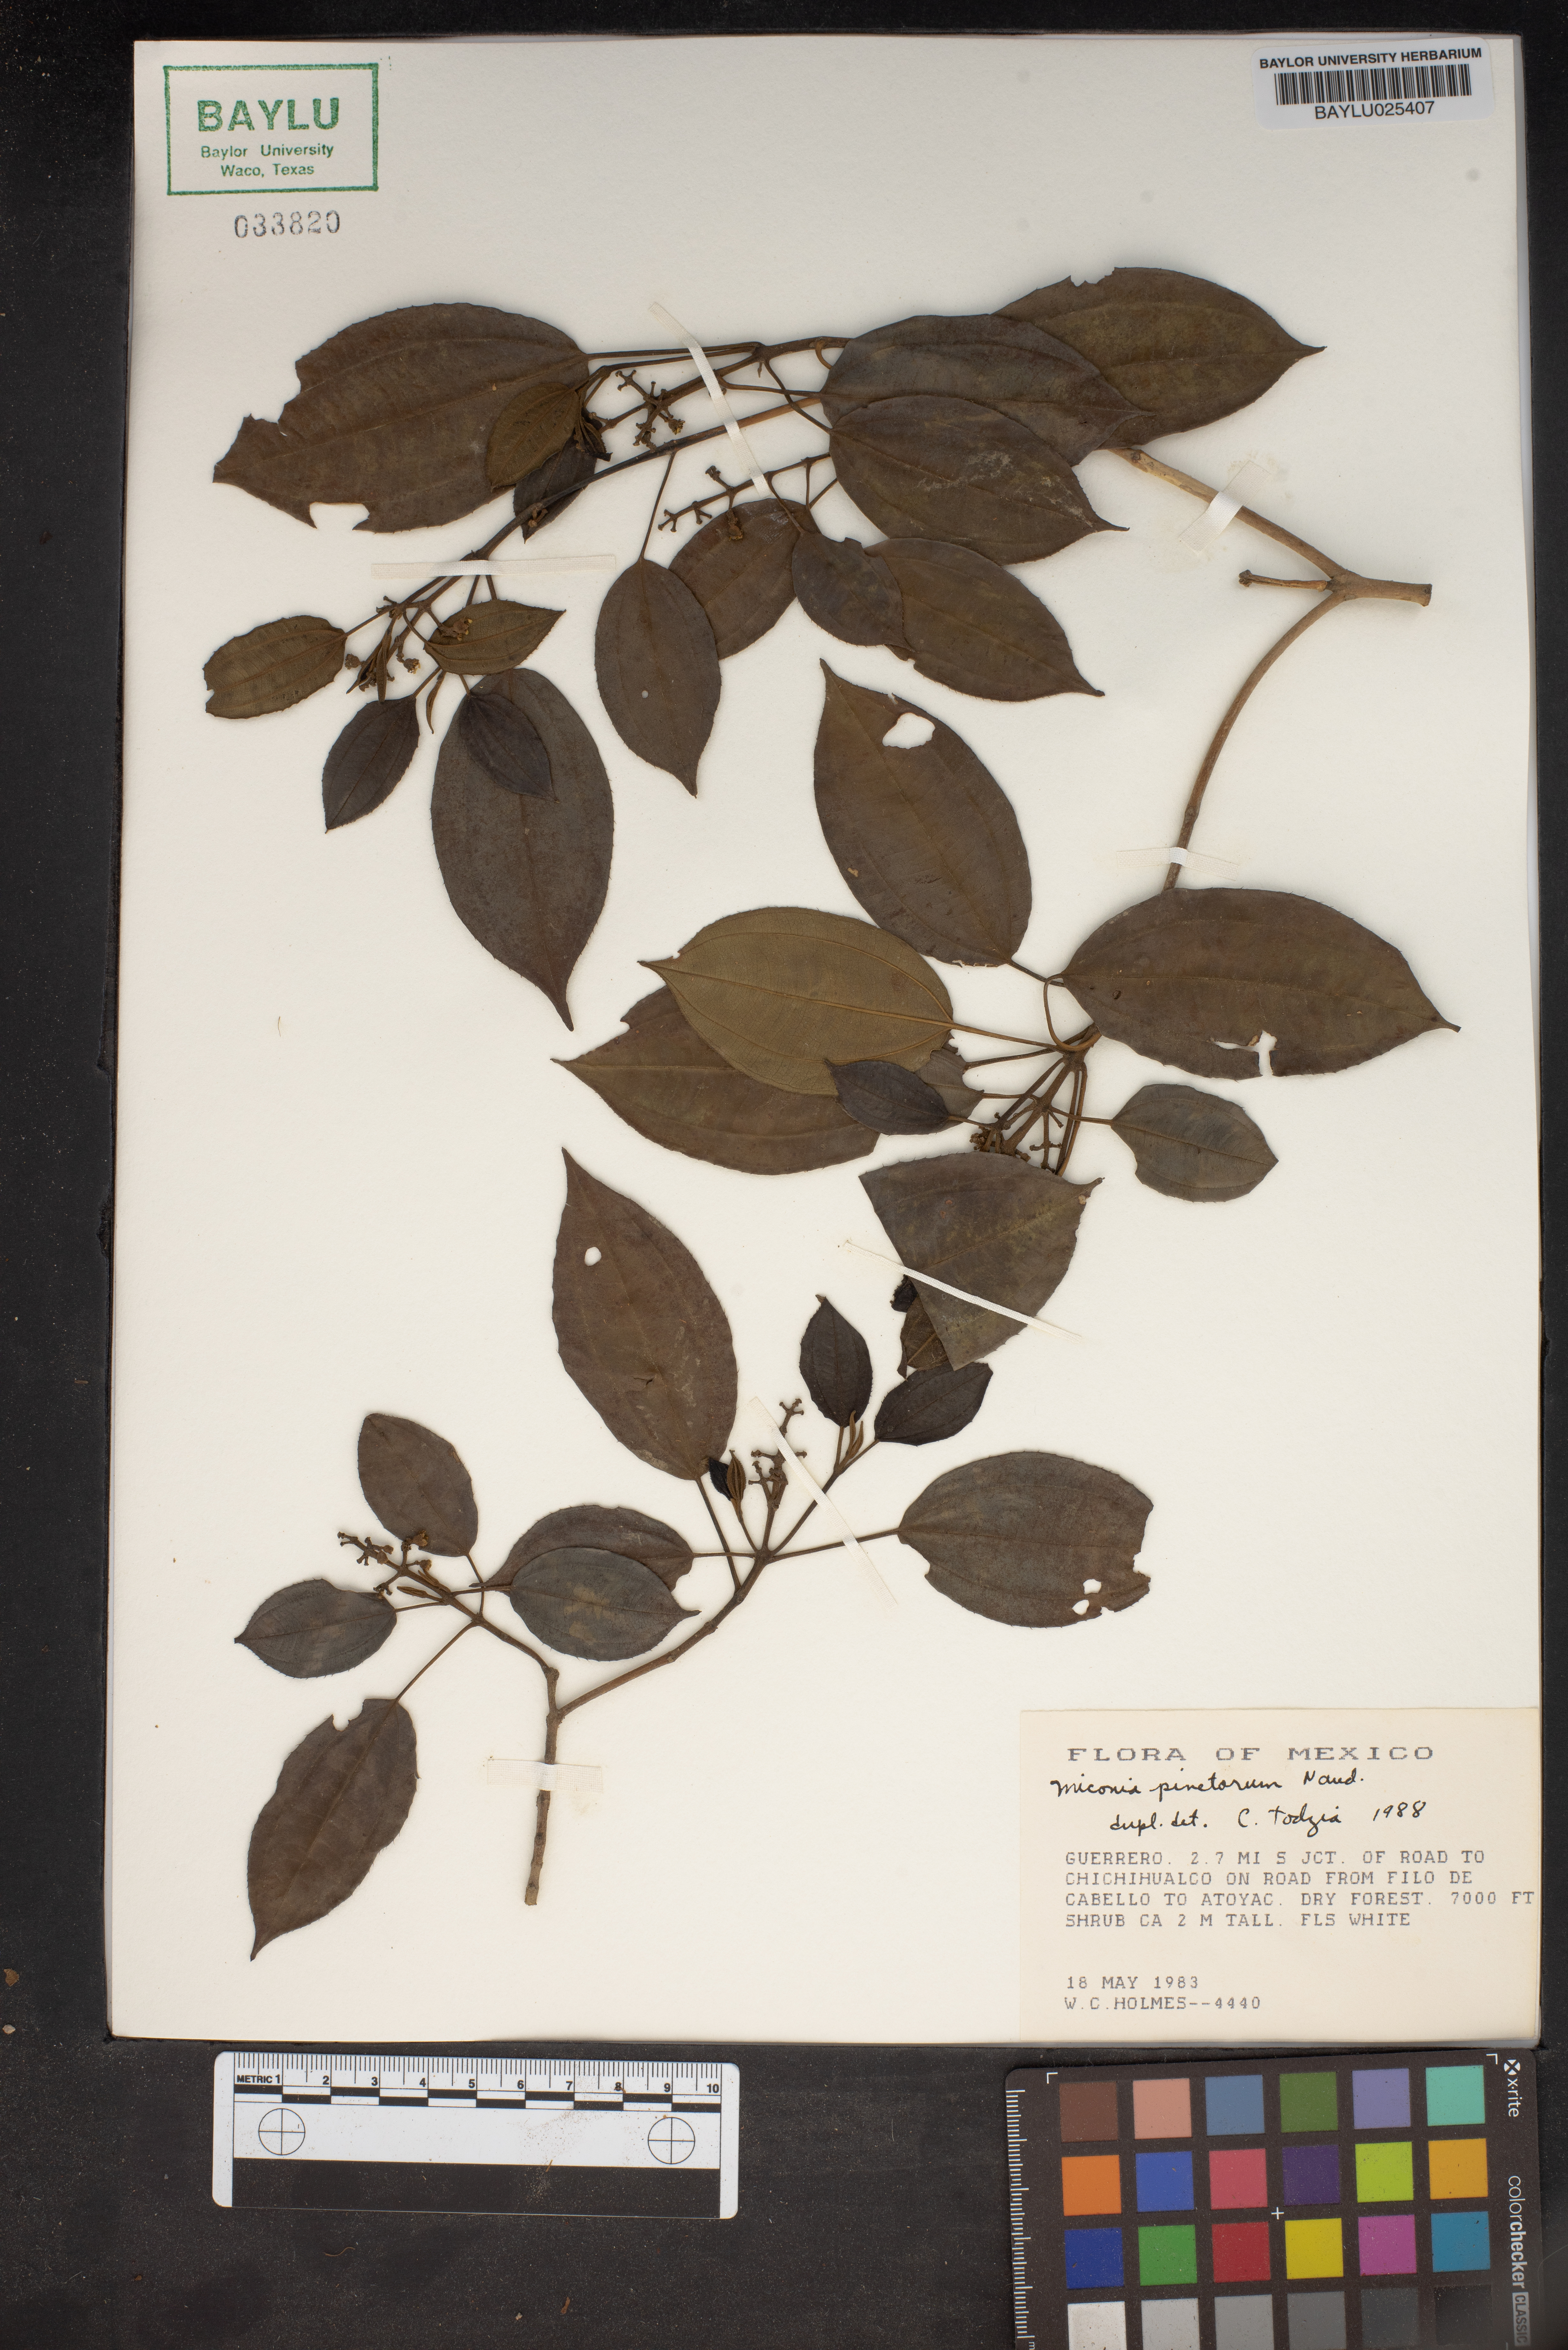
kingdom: Plantae
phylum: Tracheophyta
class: Magnoliopsida
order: Myrtales
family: Melastomataceae
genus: Miconia
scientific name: Miconia pinetorum
